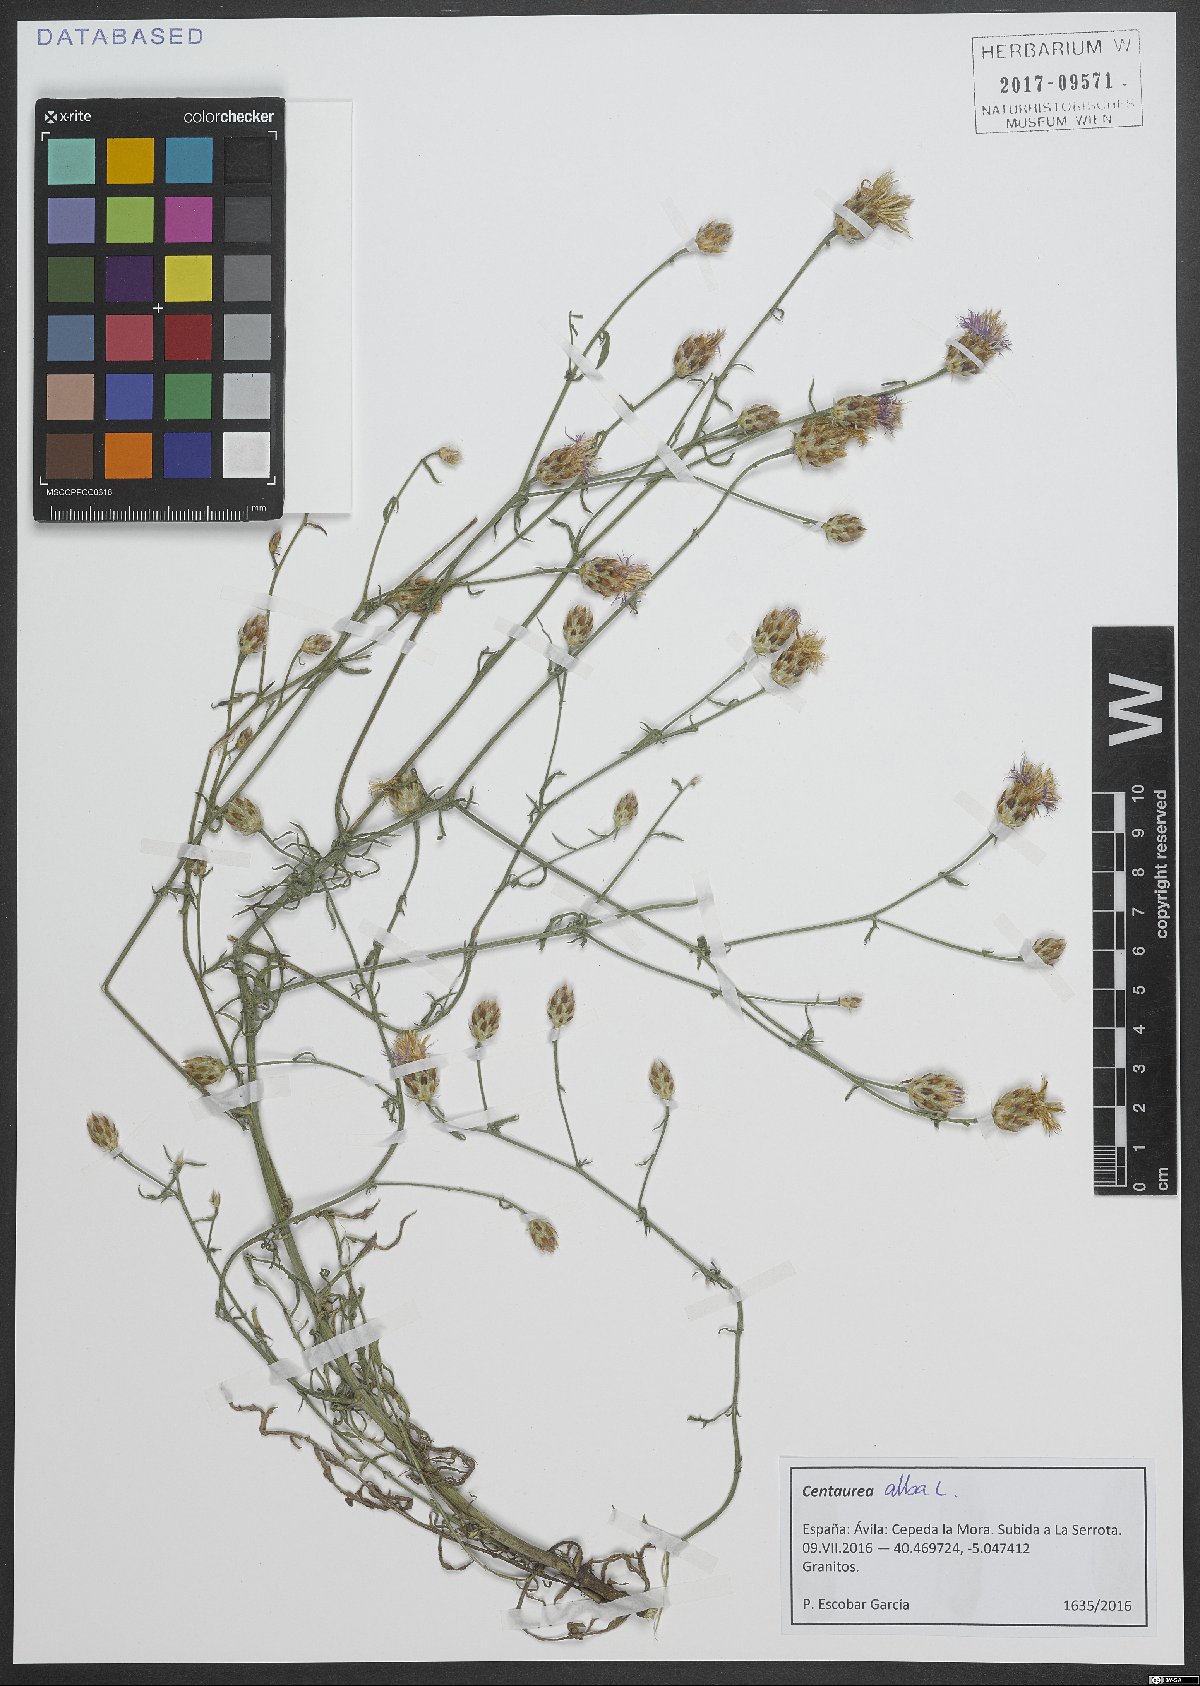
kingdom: Plantae
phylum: Tracheophyta
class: Magnoliopsida
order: Asterales
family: Asteraceae
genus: Centaurea
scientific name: Centaurea alba
